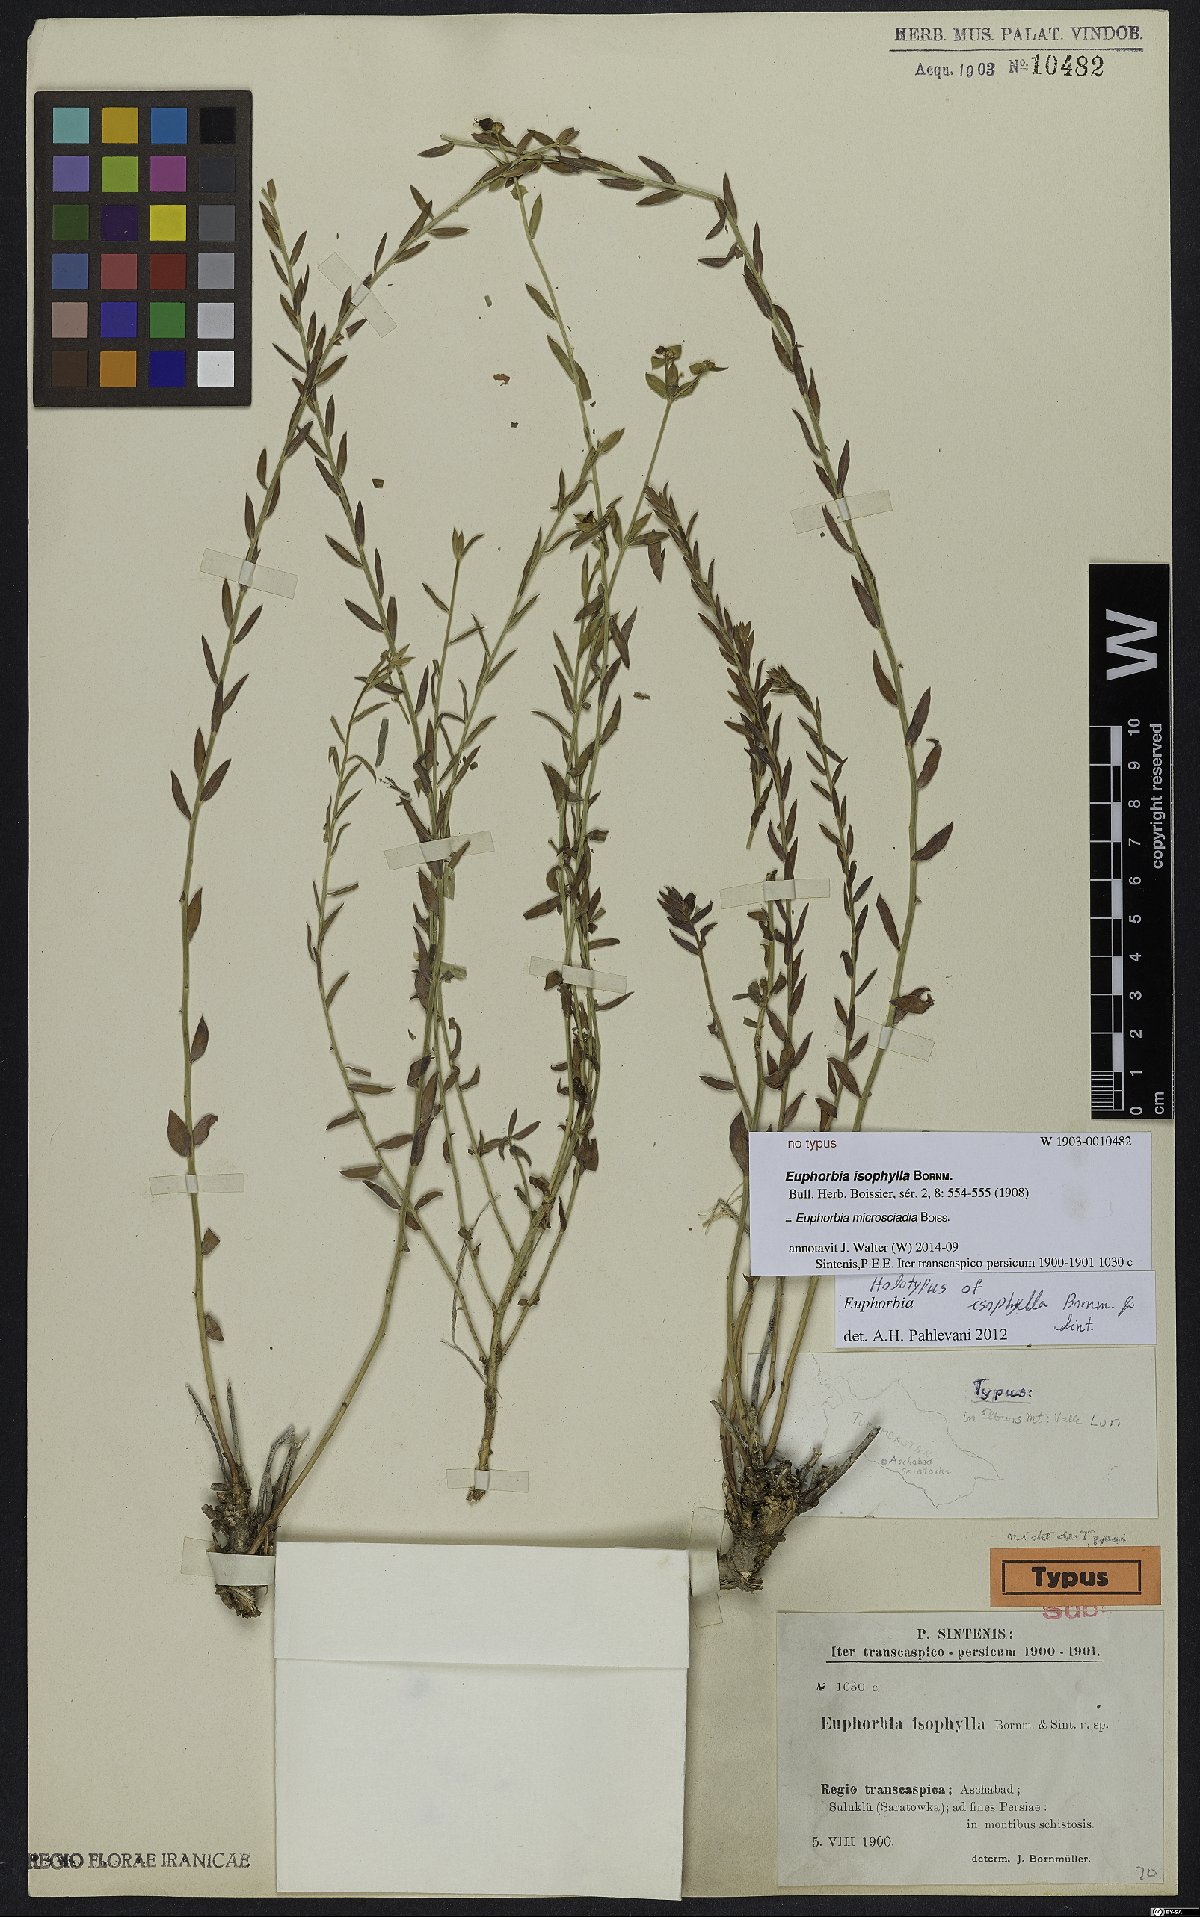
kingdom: Plantae
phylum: Tracheophyta
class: Magnoliopsida
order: Malpighiales
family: Euphorbiaceae
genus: Euphorbia
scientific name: Euphorbia microsciadia
